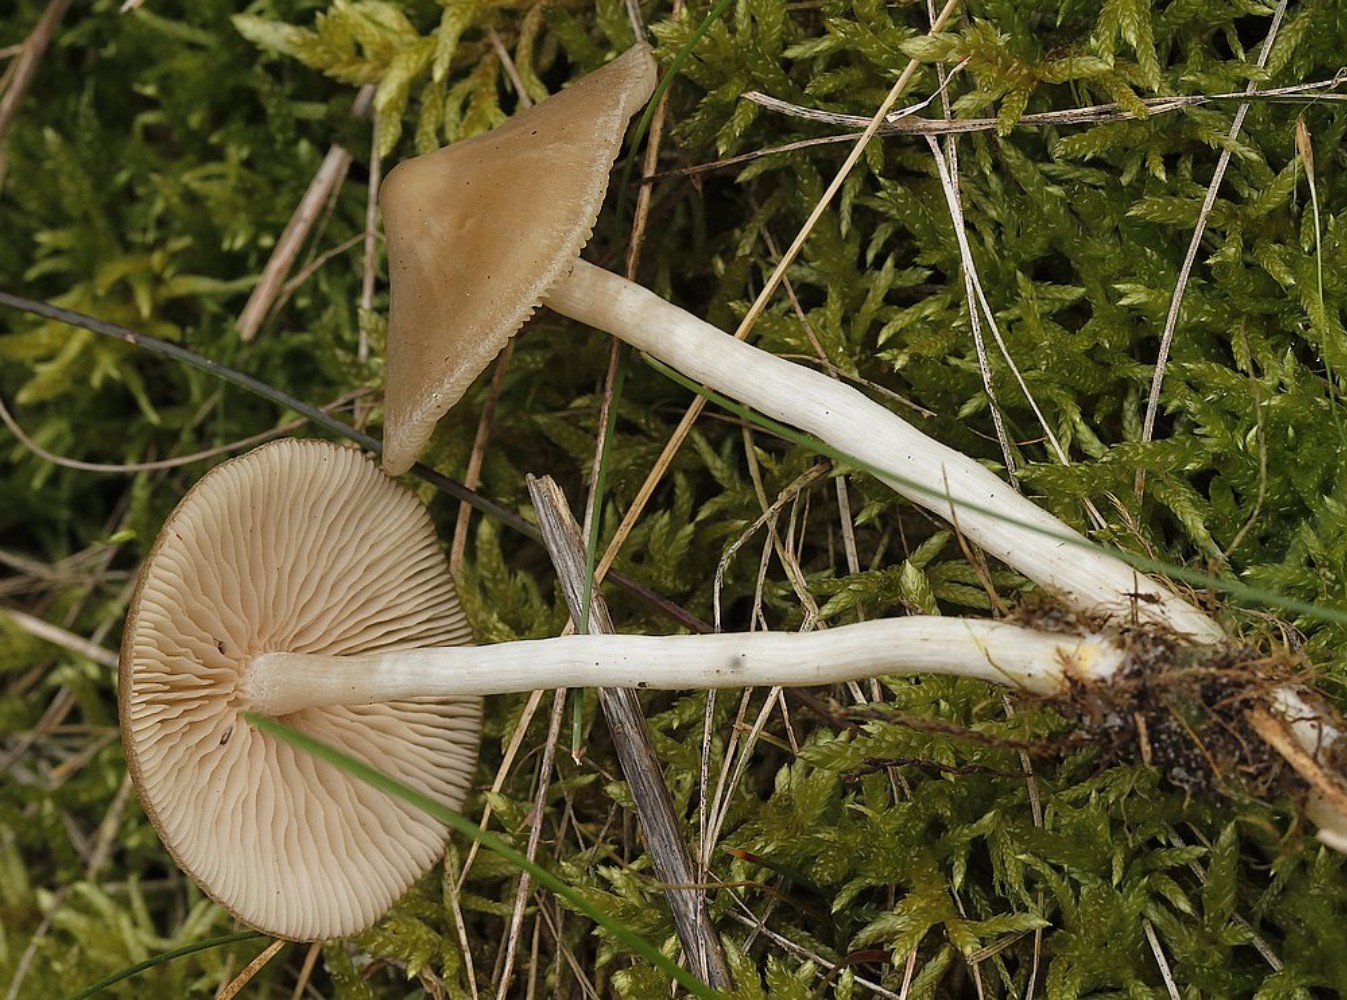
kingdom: Fungi
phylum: Basidiomycota
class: Agaricomycetes
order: Agaricales
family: Entolomataceae
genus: Entoloma
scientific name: Entoloma
